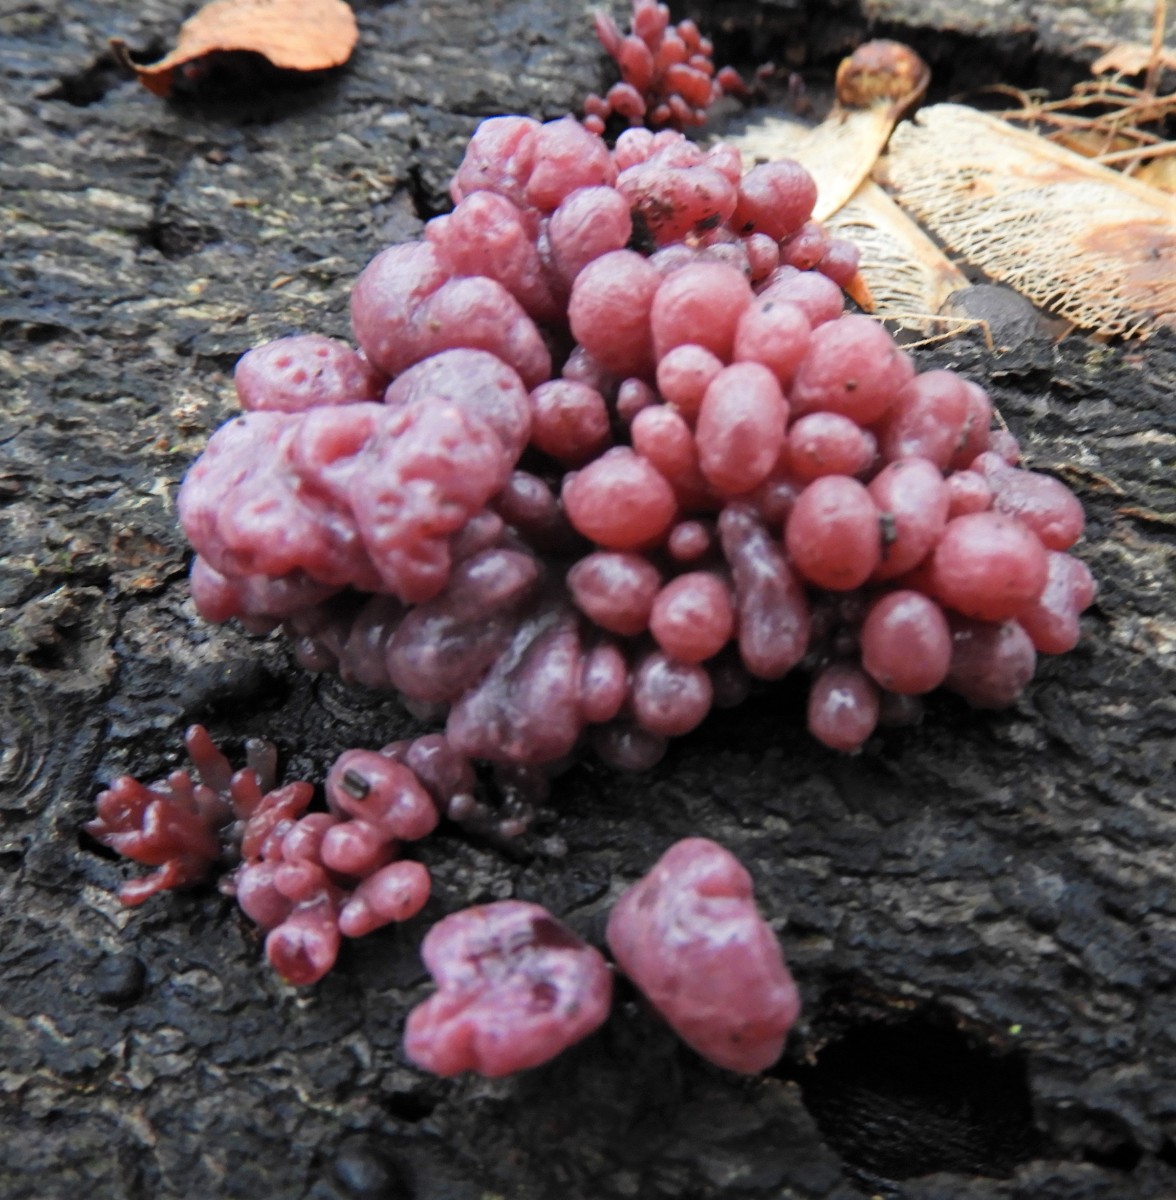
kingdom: Fungi
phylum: Ascomycota
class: Leotiomycetes
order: Helotiales
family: Gelatinodiscaceae
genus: Ascocoryne
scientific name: Ascocoryne sarcoides
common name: rødlilla sejskive
